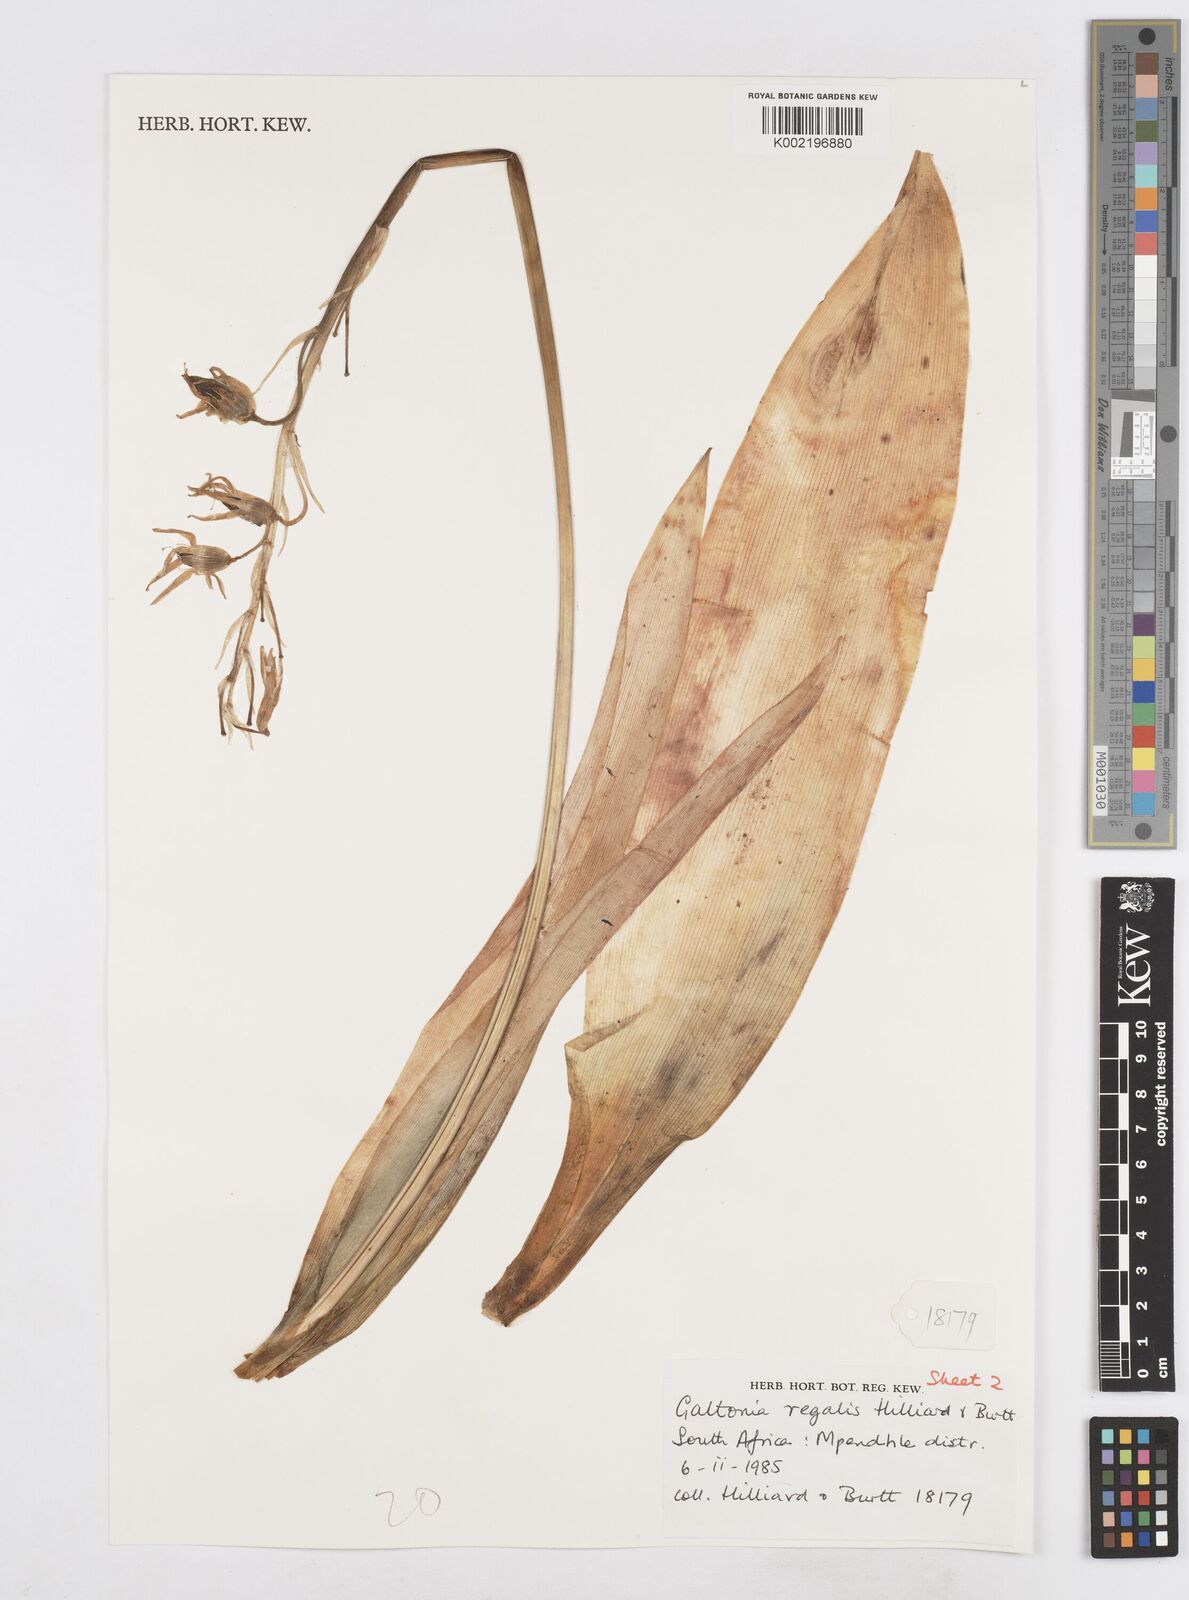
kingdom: Plantae
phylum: Tracheophyta
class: Liliopsida
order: Asparagales
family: Asparagaceae
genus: Ornithogalum
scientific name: Ornithogalum regale
